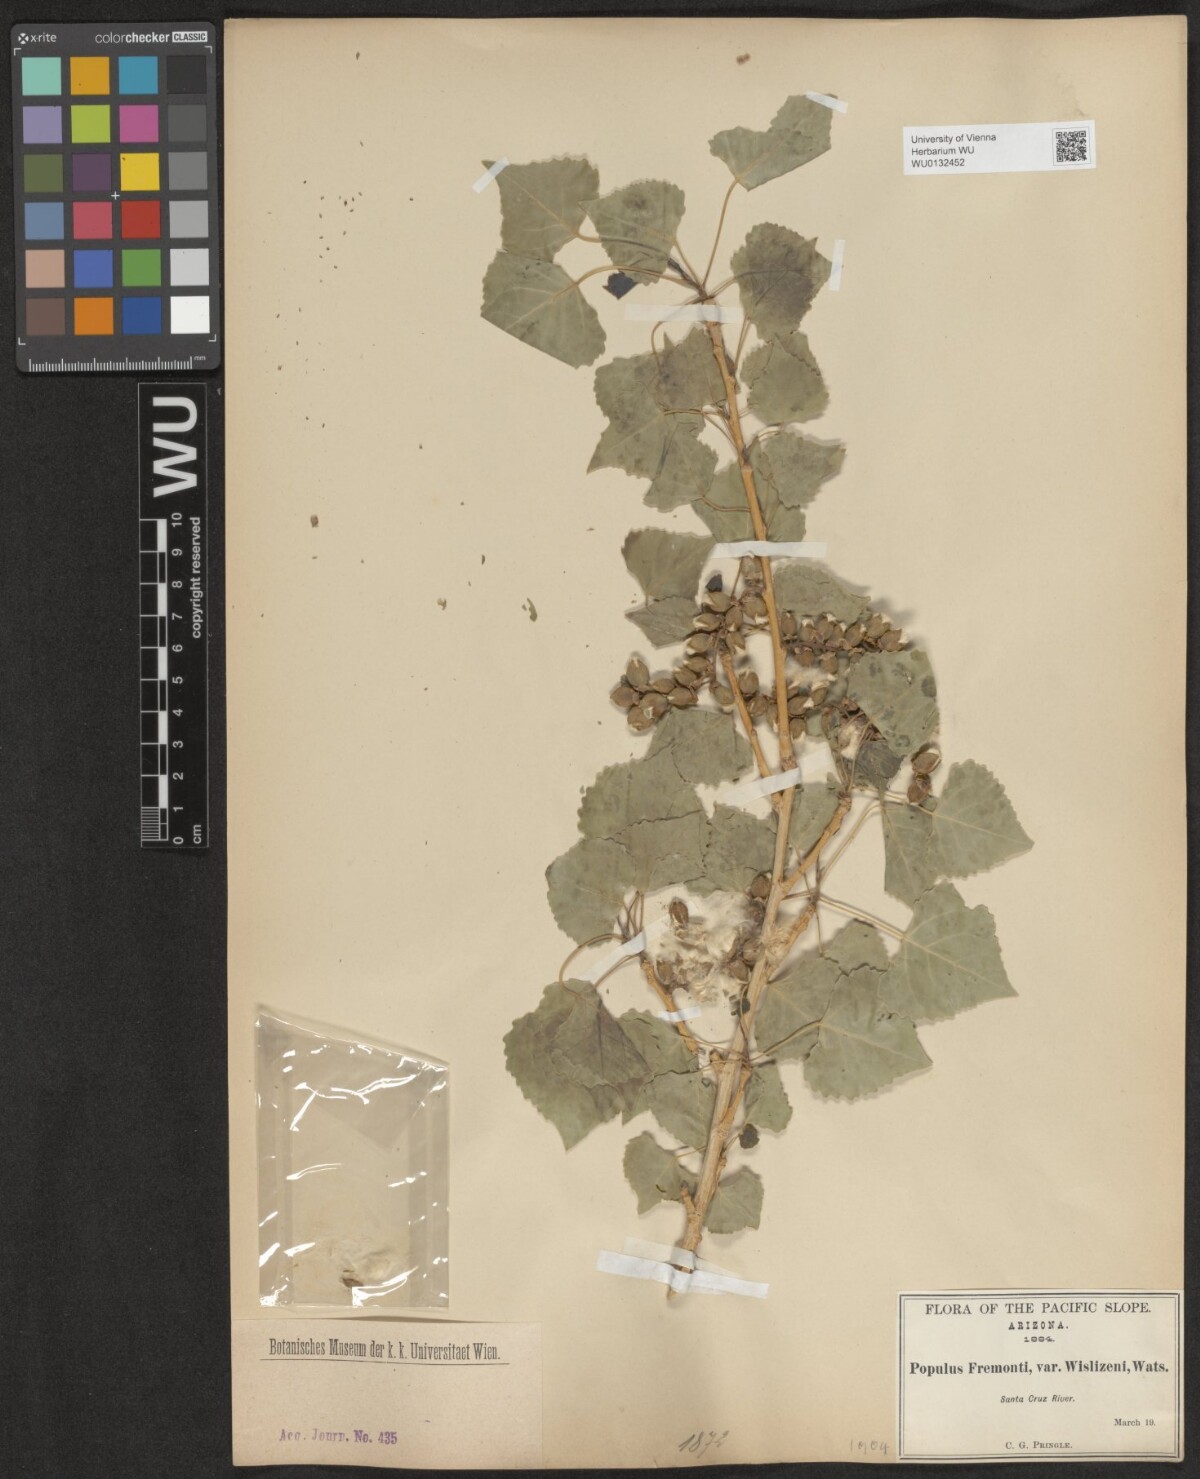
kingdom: Plantae
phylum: Tracheophyta
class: Magnoliopsida
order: Malpighiales
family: Salicaceae
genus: Populus
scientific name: Populus deltoides
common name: Eastern cottonwood
